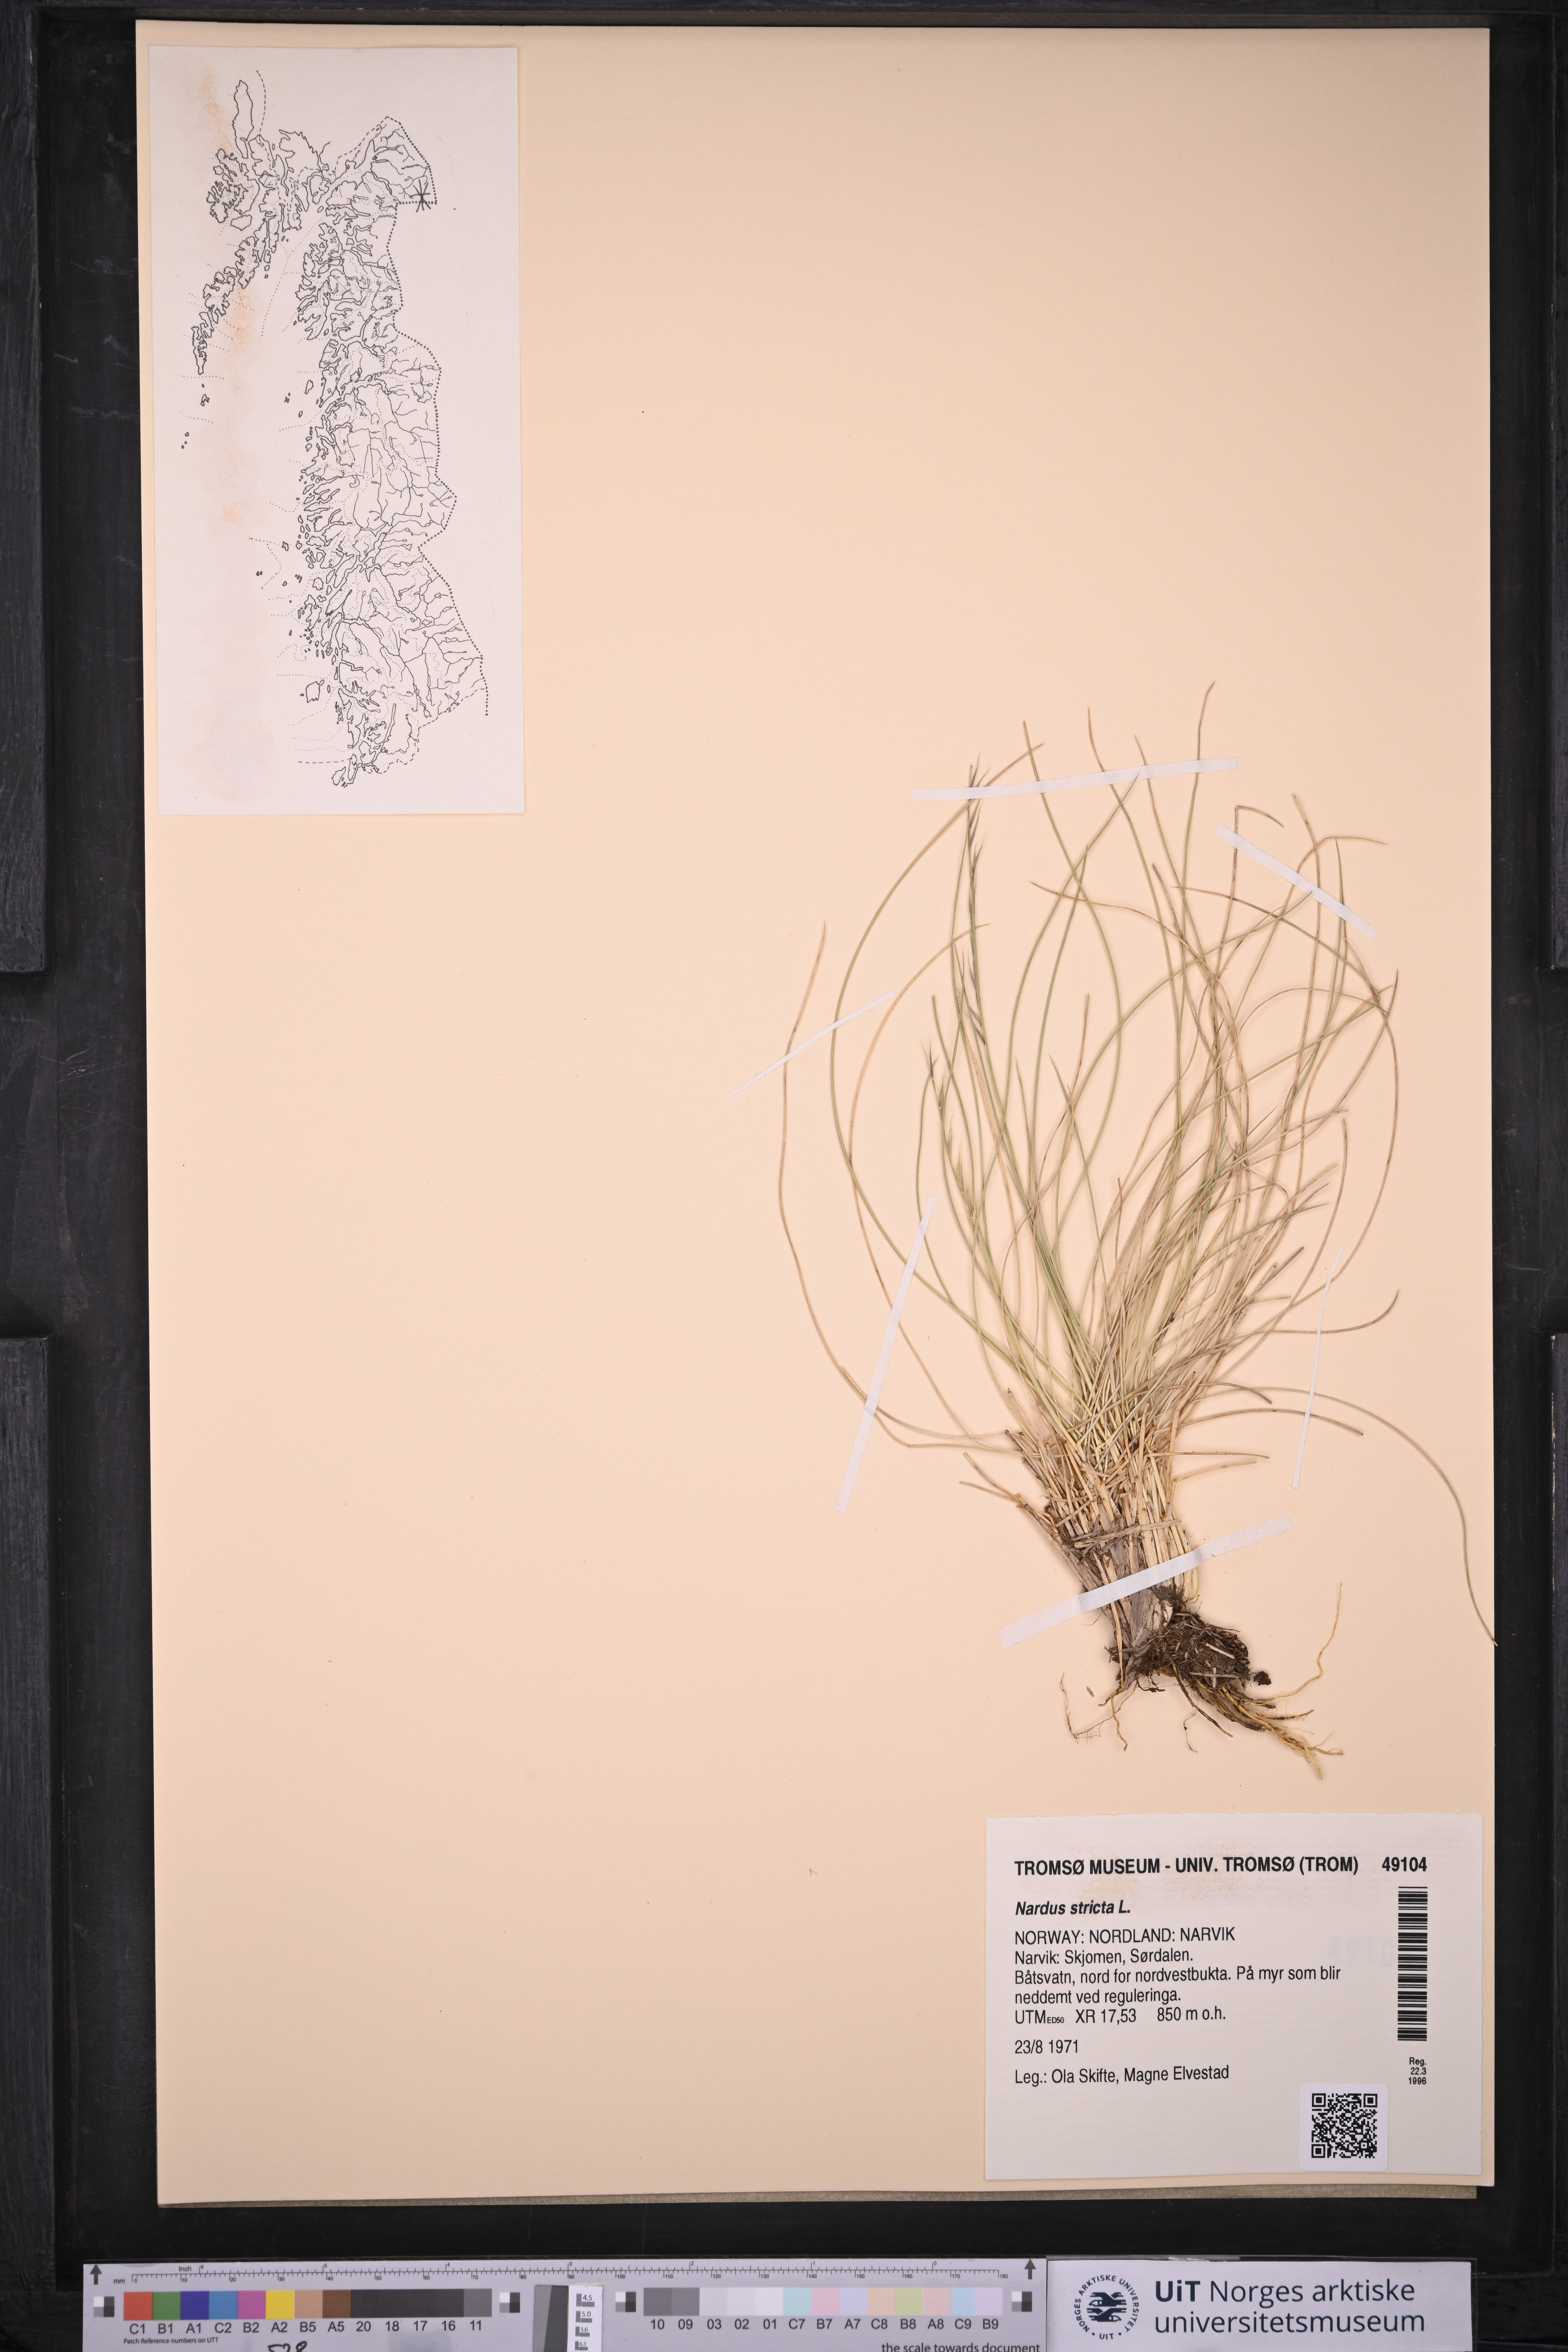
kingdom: Plantae
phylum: Tracheophyta
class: Liliopsida
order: Poales
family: Poaceae
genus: Nardus
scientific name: Nardus stricta
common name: Mat-grass
